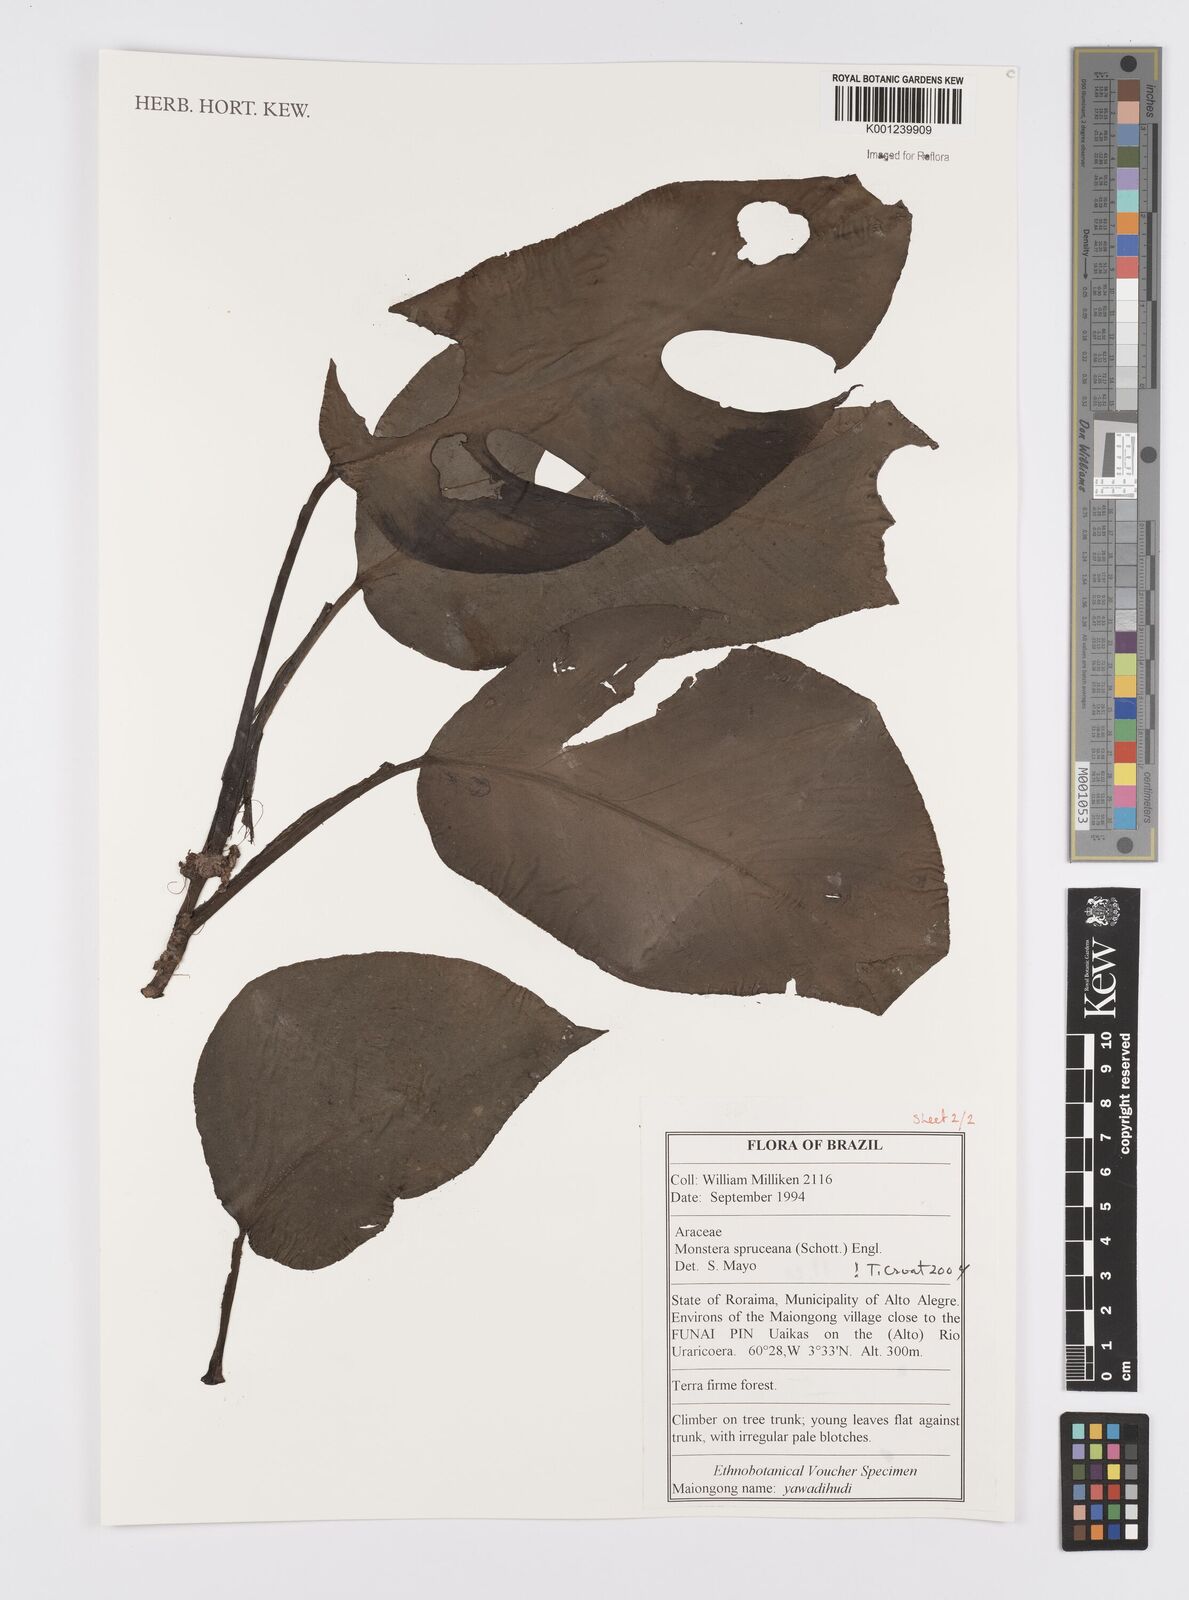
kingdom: Plantae
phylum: Tracheophyta
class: Liliopsida
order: Alismatales
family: Araceae
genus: Monstera
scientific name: Monstera spruceana
